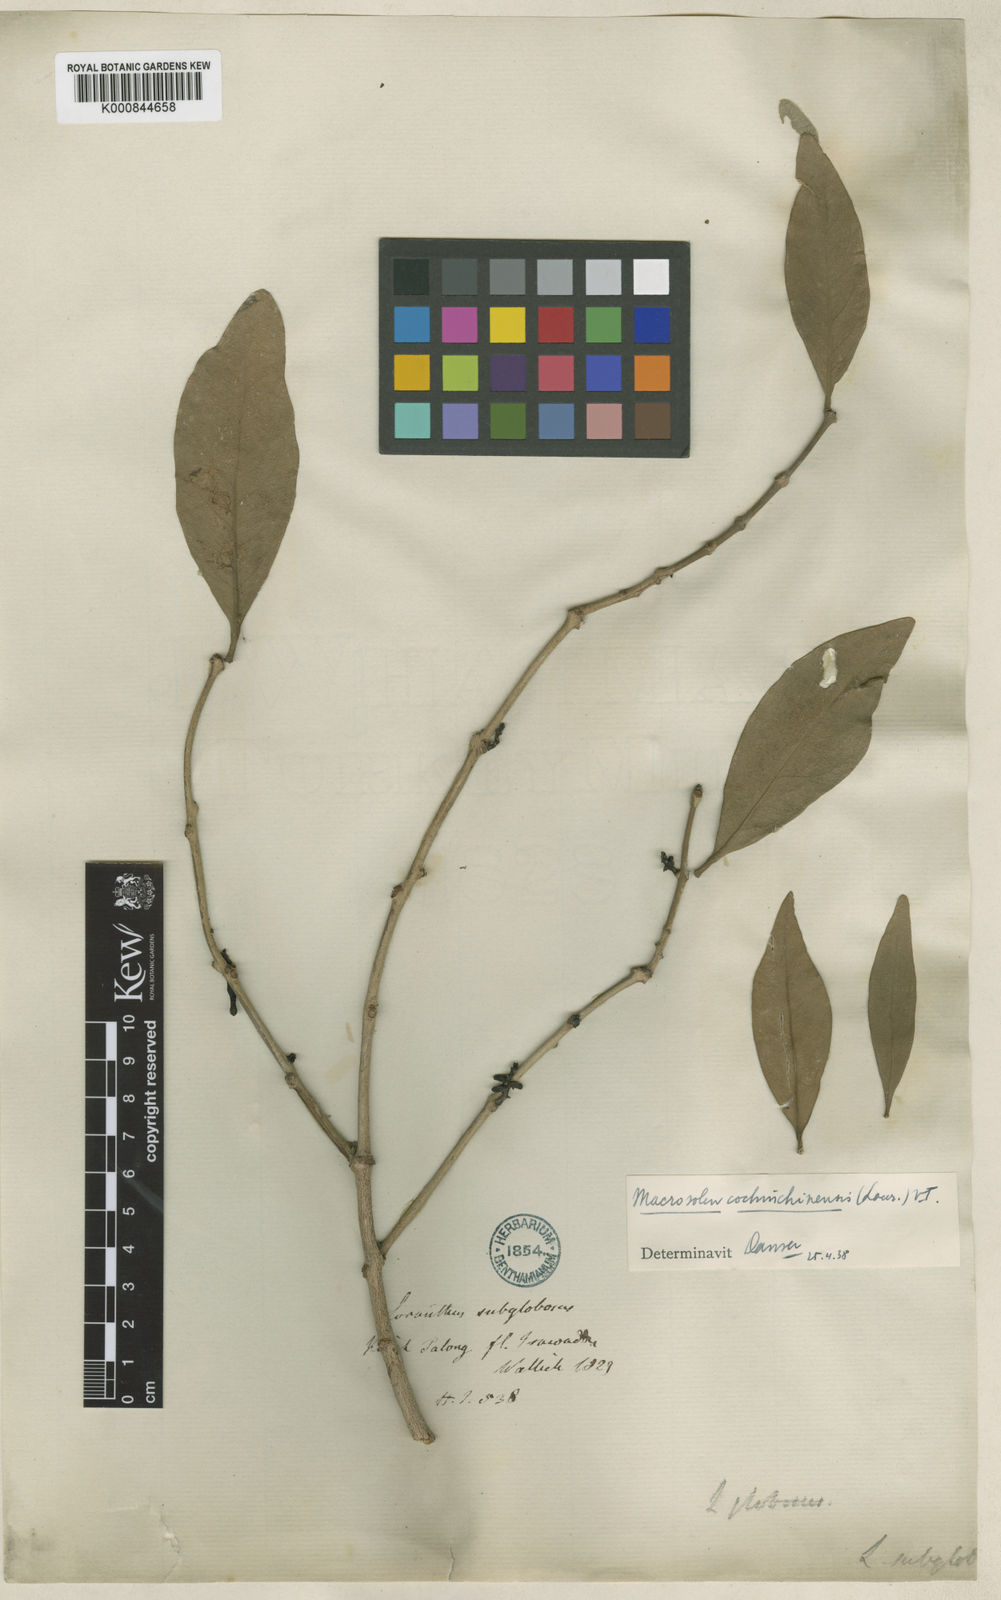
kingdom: Plantae
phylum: Tracheophyta
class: Magnoliopsida
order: Santalales
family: Loranthaceae
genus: Macrosolen
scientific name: Macrosolen cochinchinensis
